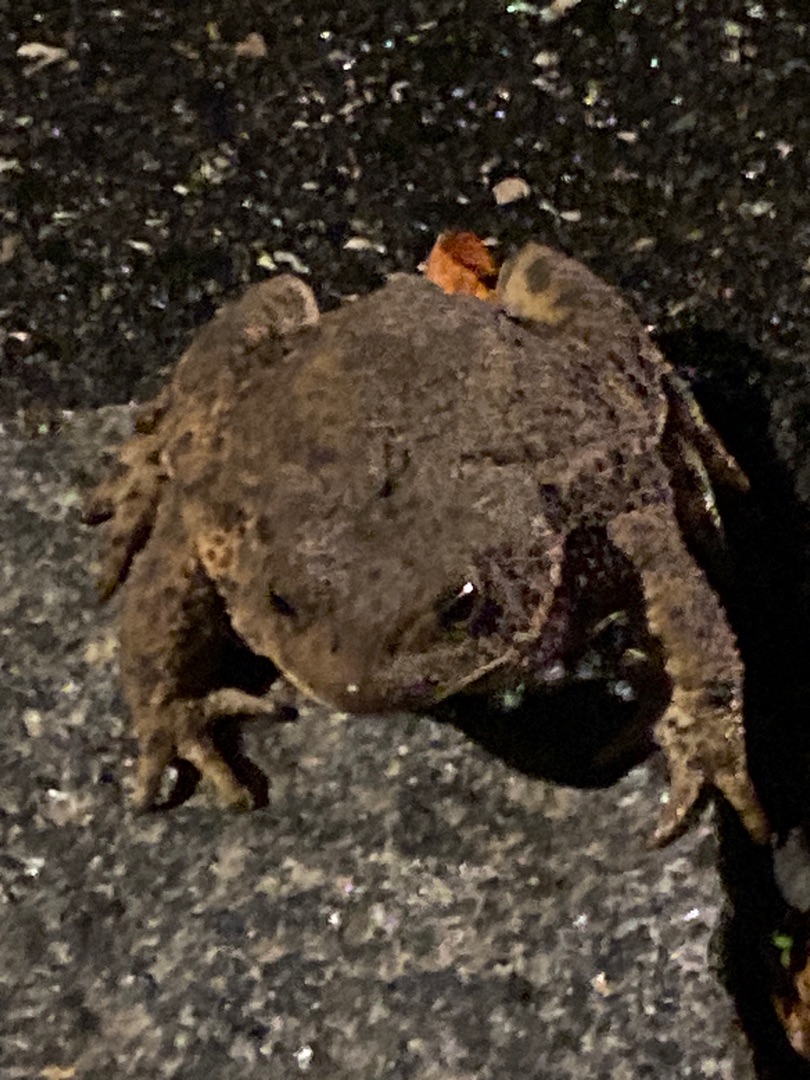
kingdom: Animalia
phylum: Chordata
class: Amphibia
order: Anura
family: Bufonidae
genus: Bufo
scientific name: Bufo bufo
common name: Skrubtudse
